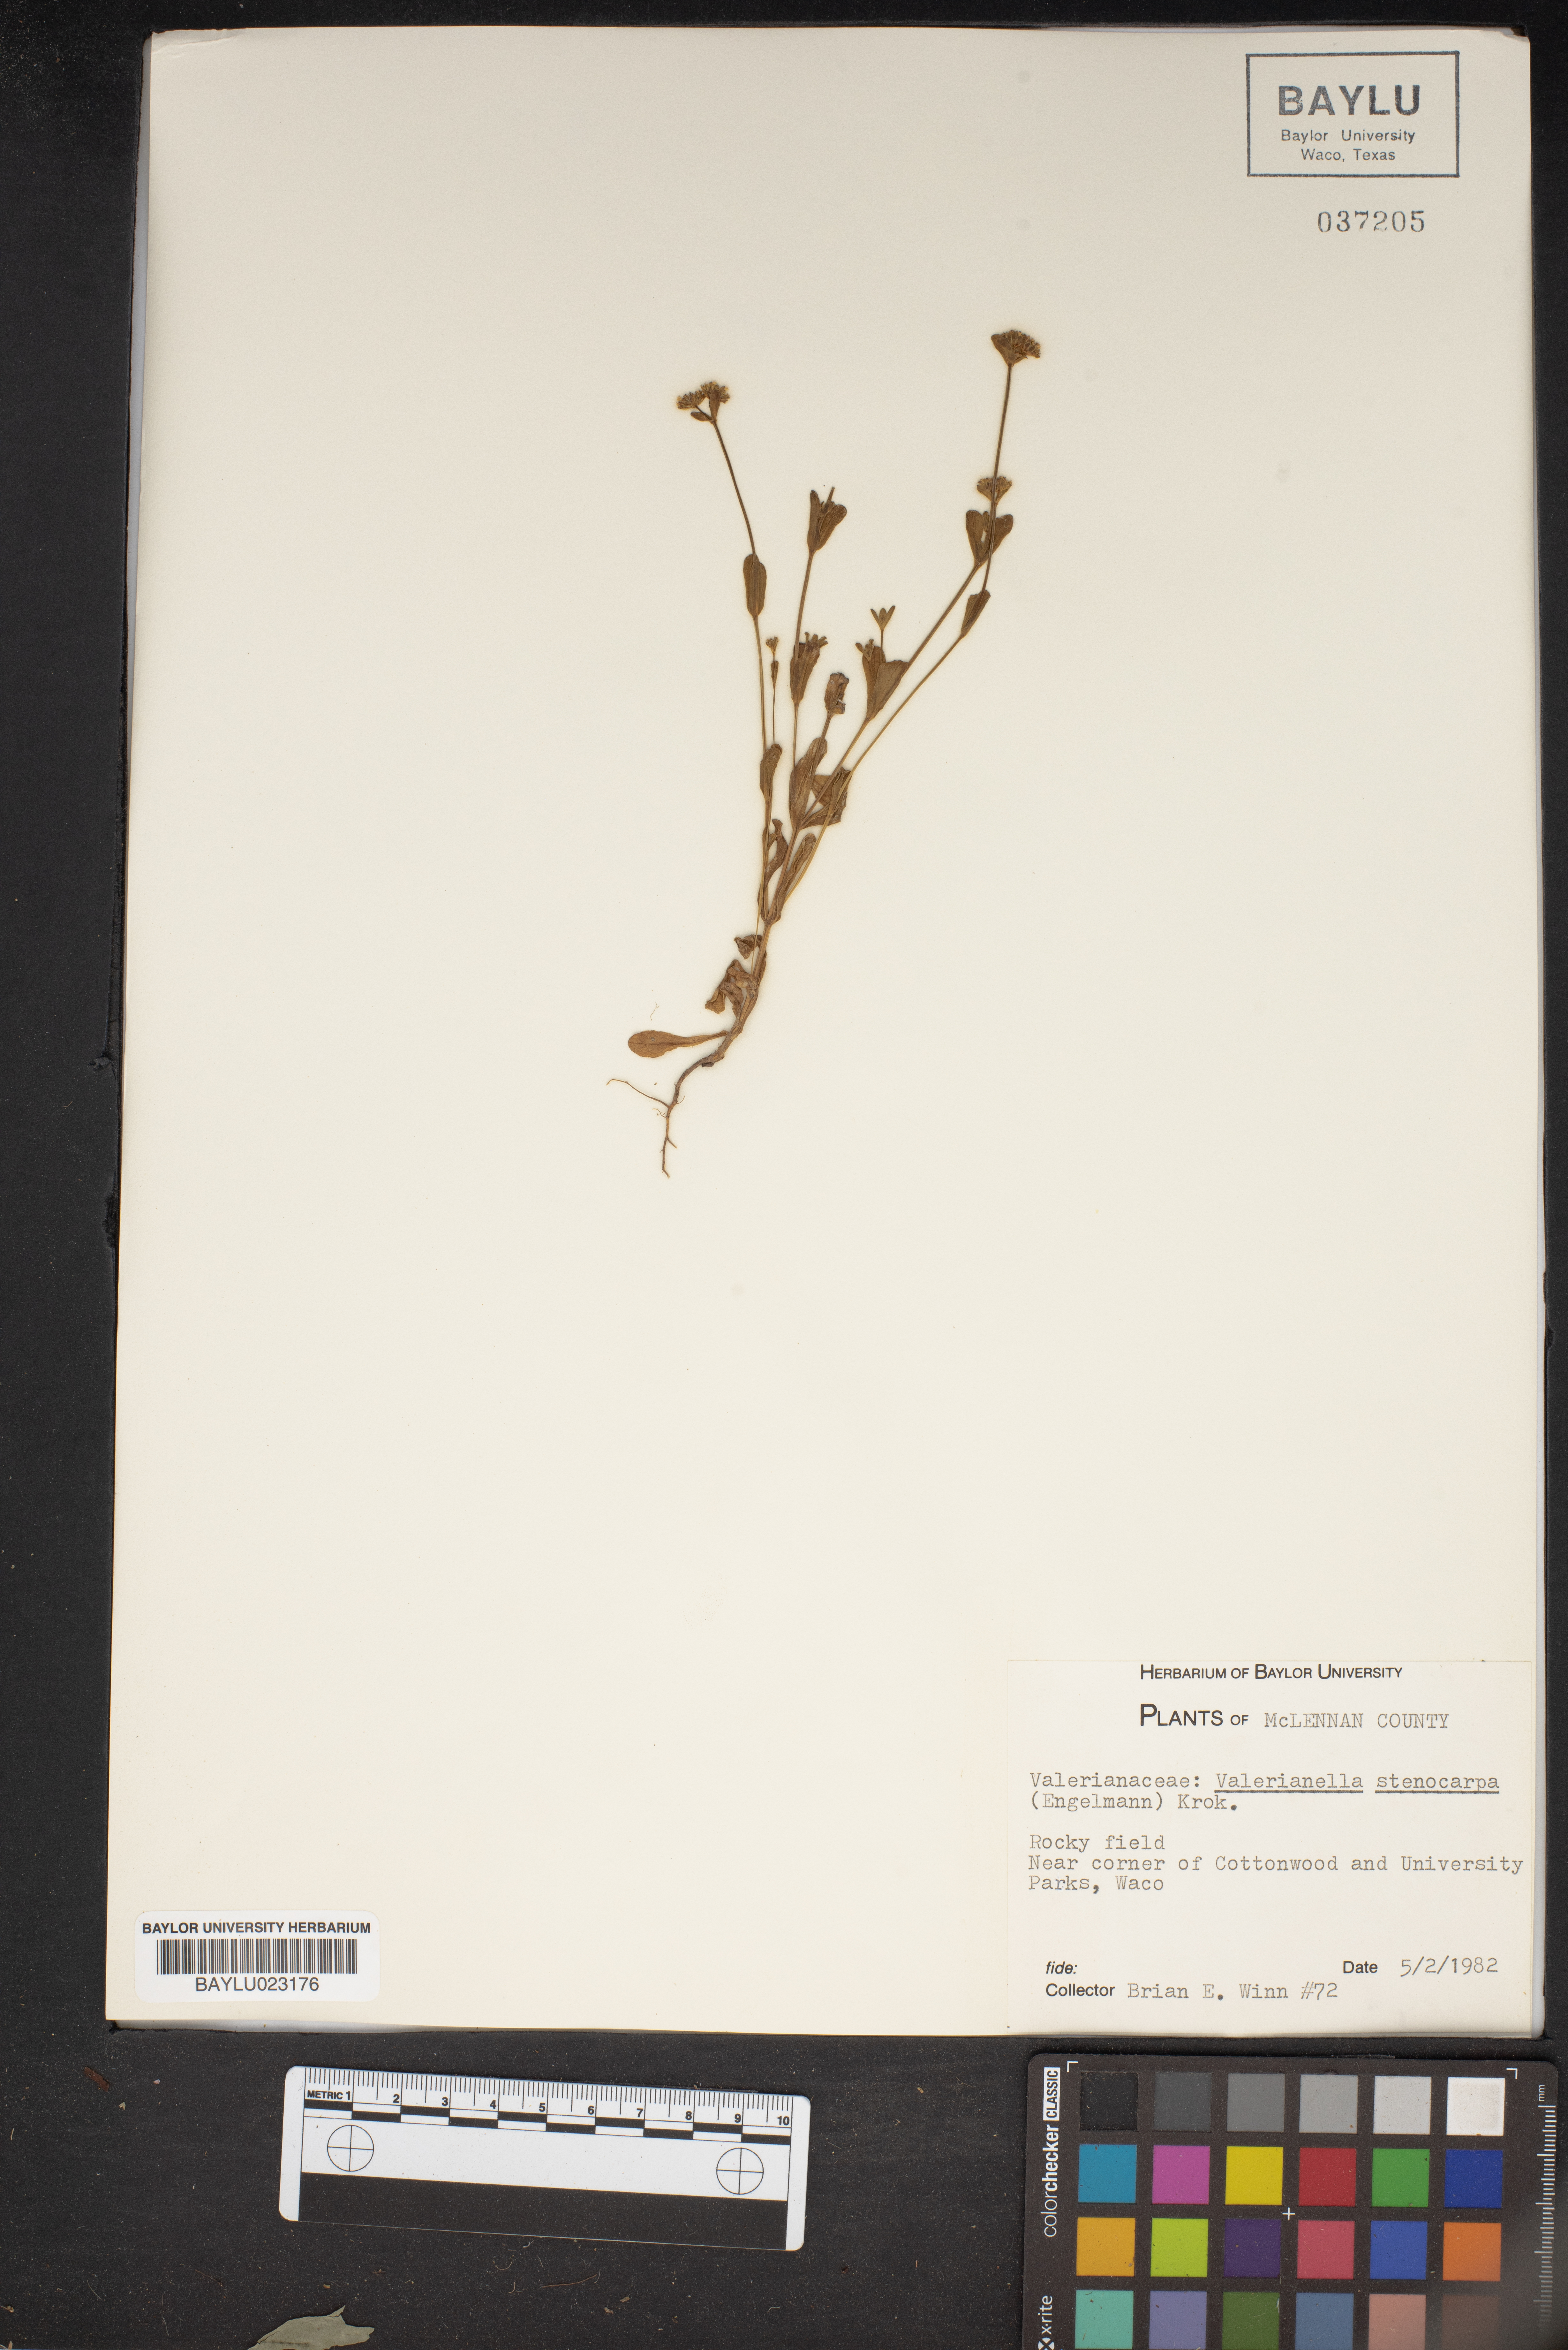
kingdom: Plantae
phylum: Tracheophyta
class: Magnoliopsida
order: Dipsacales
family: Caprifoliaceae
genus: Valerianella
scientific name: Valerianella stenocarpa
